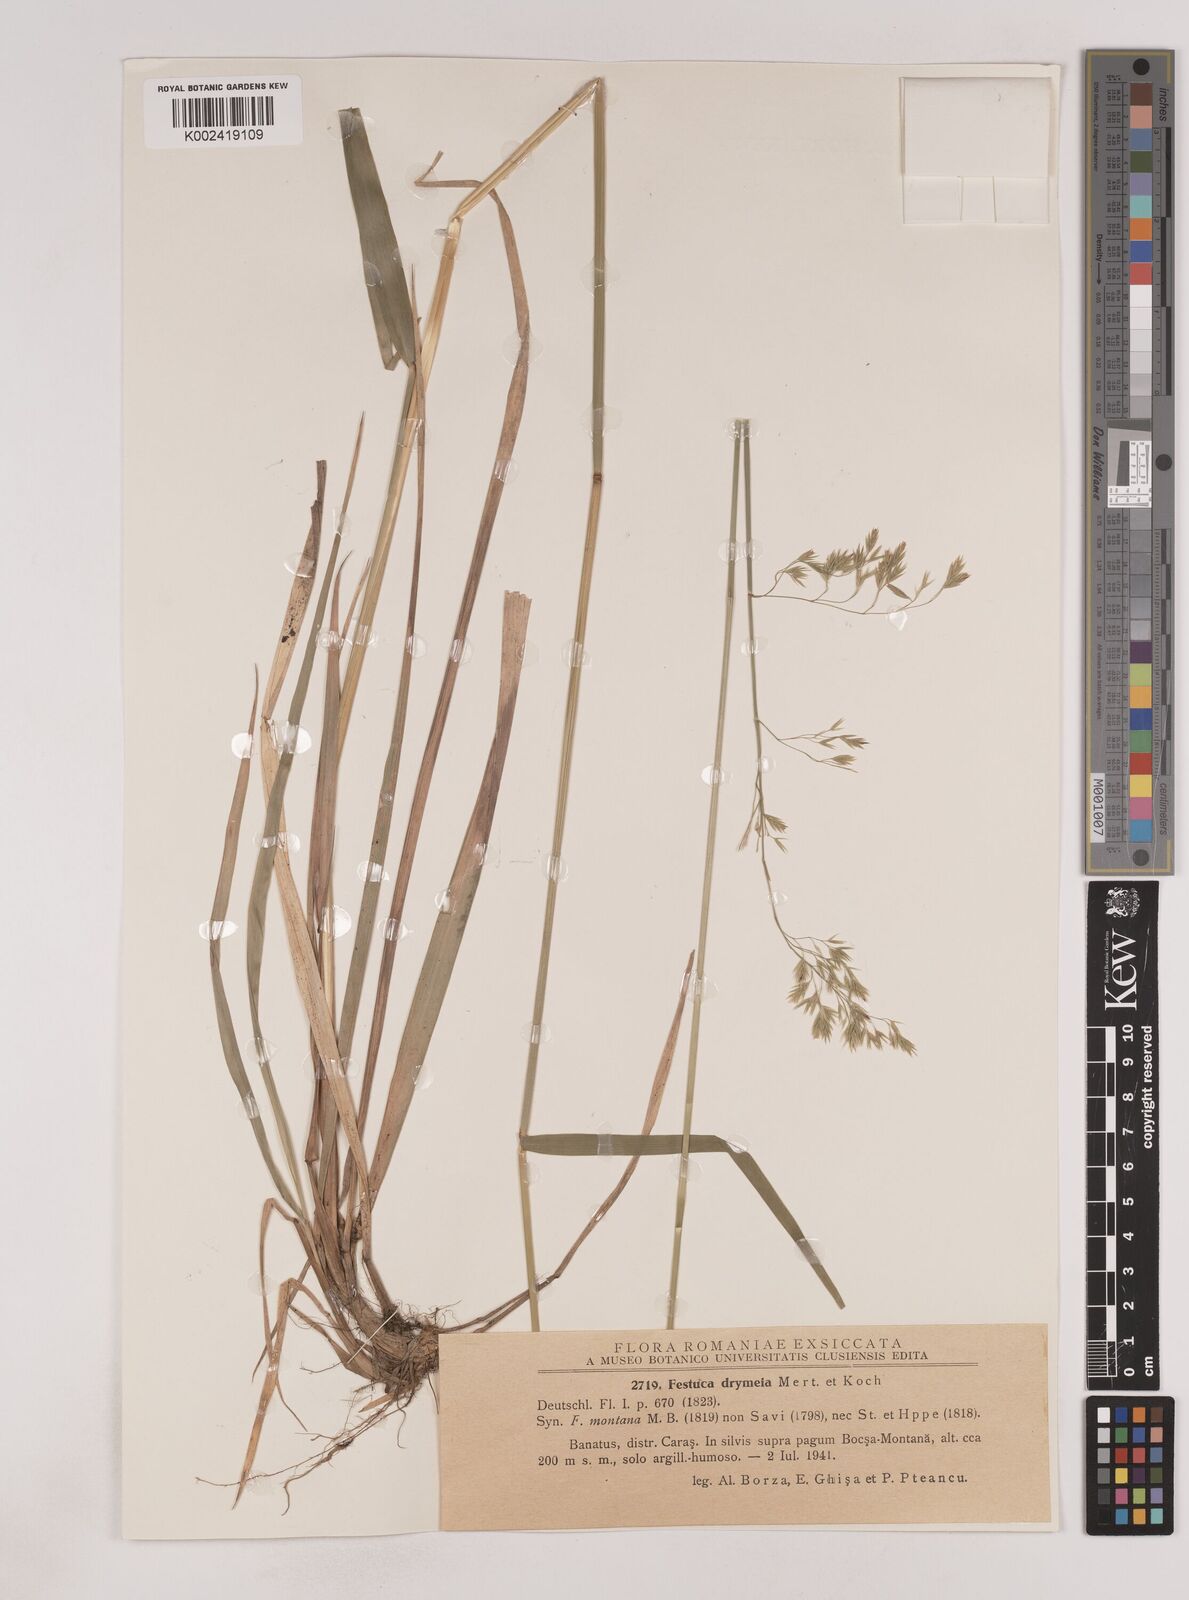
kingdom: Plantae
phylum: Tracheophyta
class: Liliopsida
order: Poales
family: Poaceae
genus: Festuca
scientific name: Festuca drymeja
